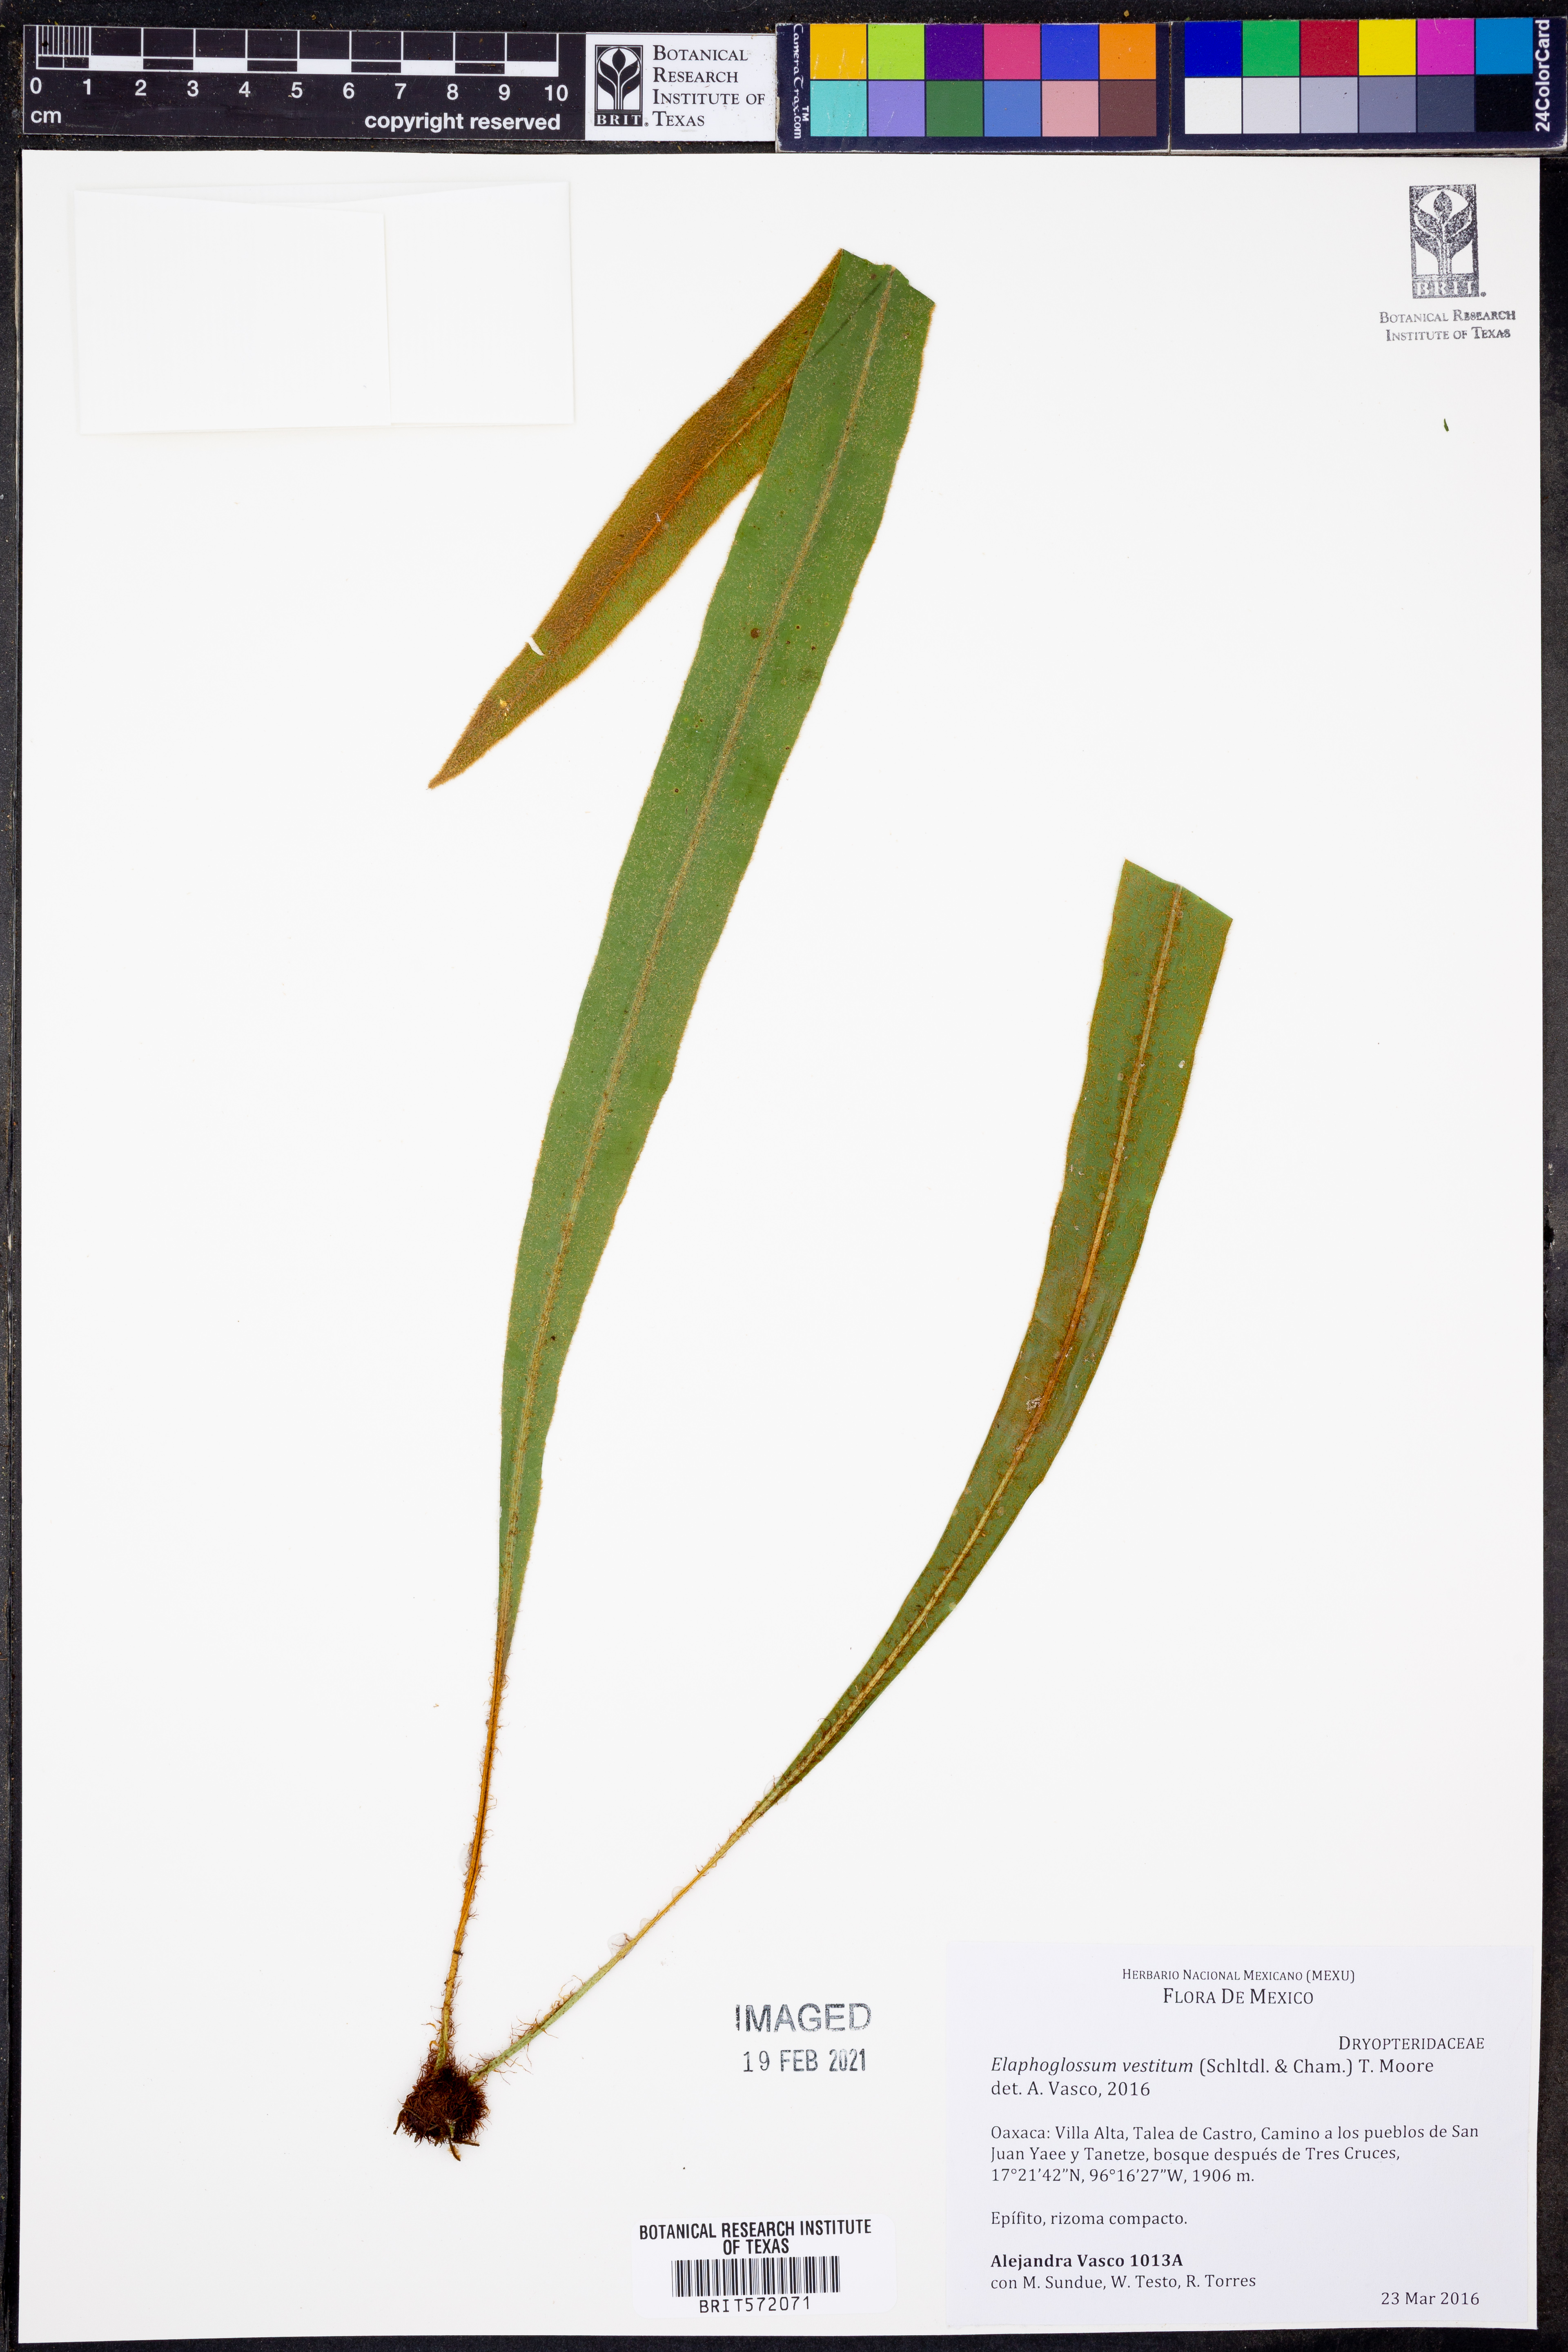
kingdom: Plantae
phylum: Tracheophyta
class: Polypodiopsida
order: Polypodiales
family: Polypodiaceae
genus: Elaphoglossum
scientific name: Elaphoglossum vestitum
